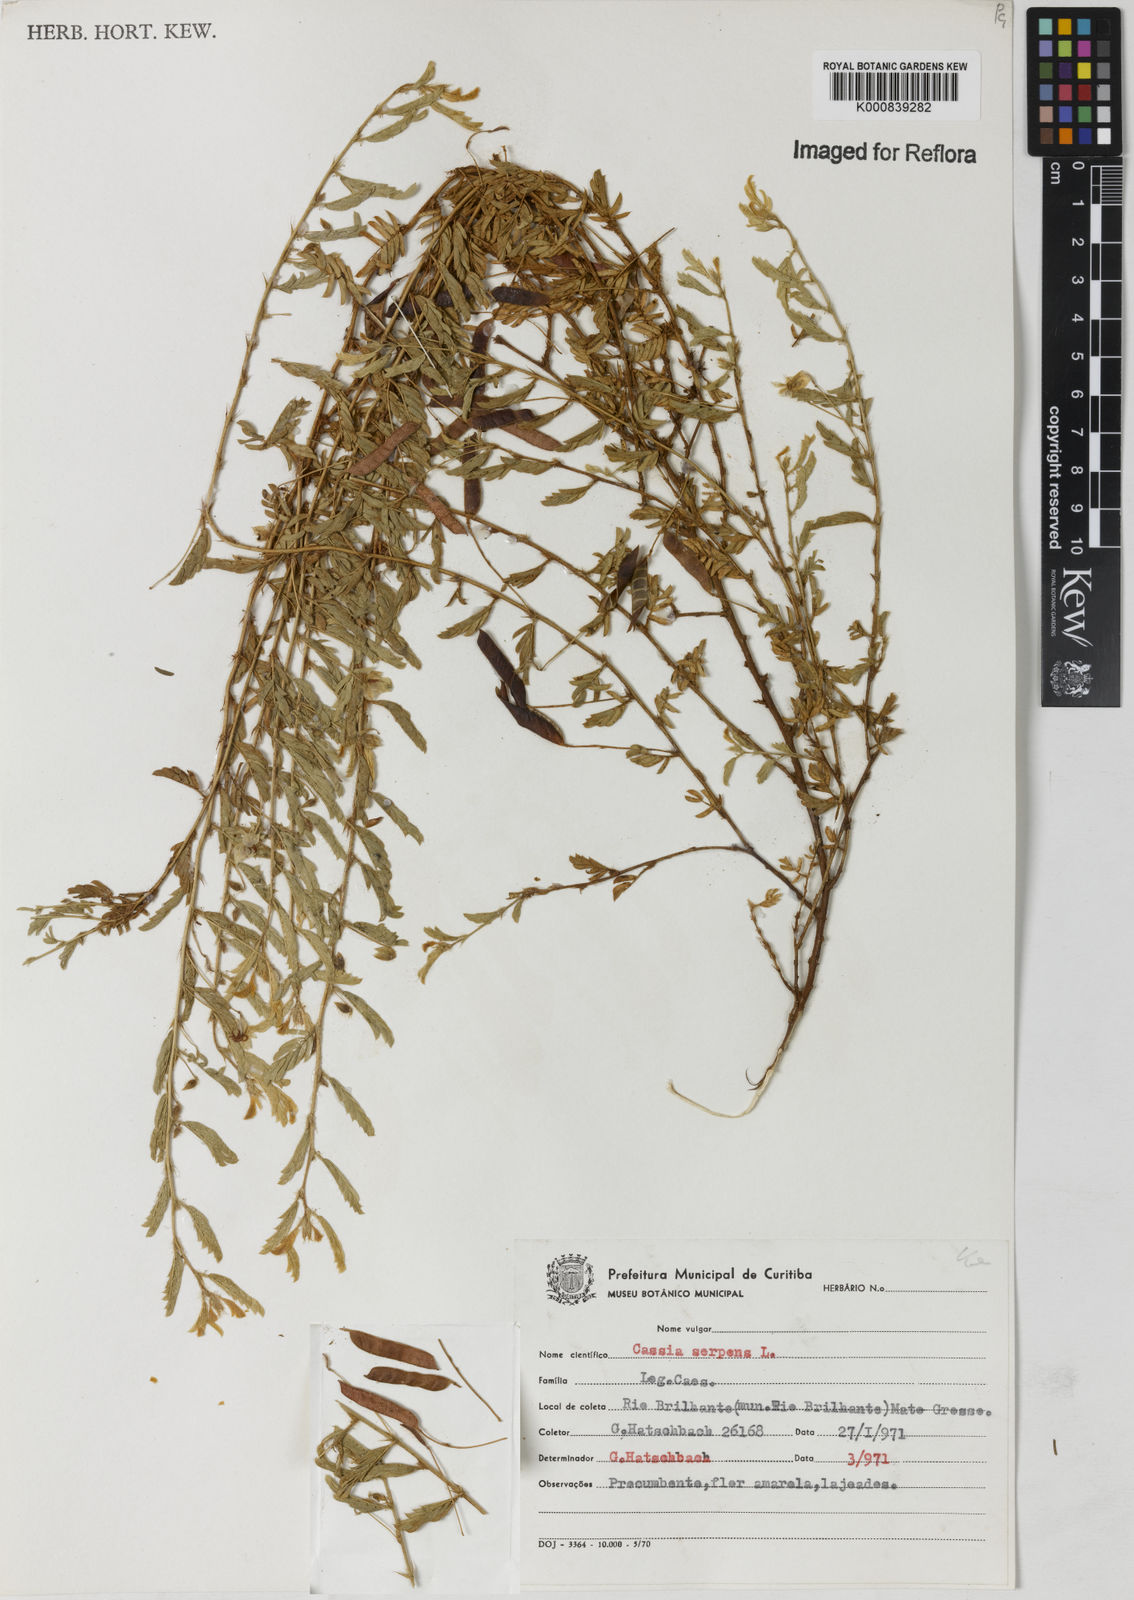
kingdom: Plantae
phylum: Tracheophyta
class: Magnoliopsida
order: Fabales
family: Fabaceae
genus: Chamaecrista
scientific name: Chamaecrista serpens
